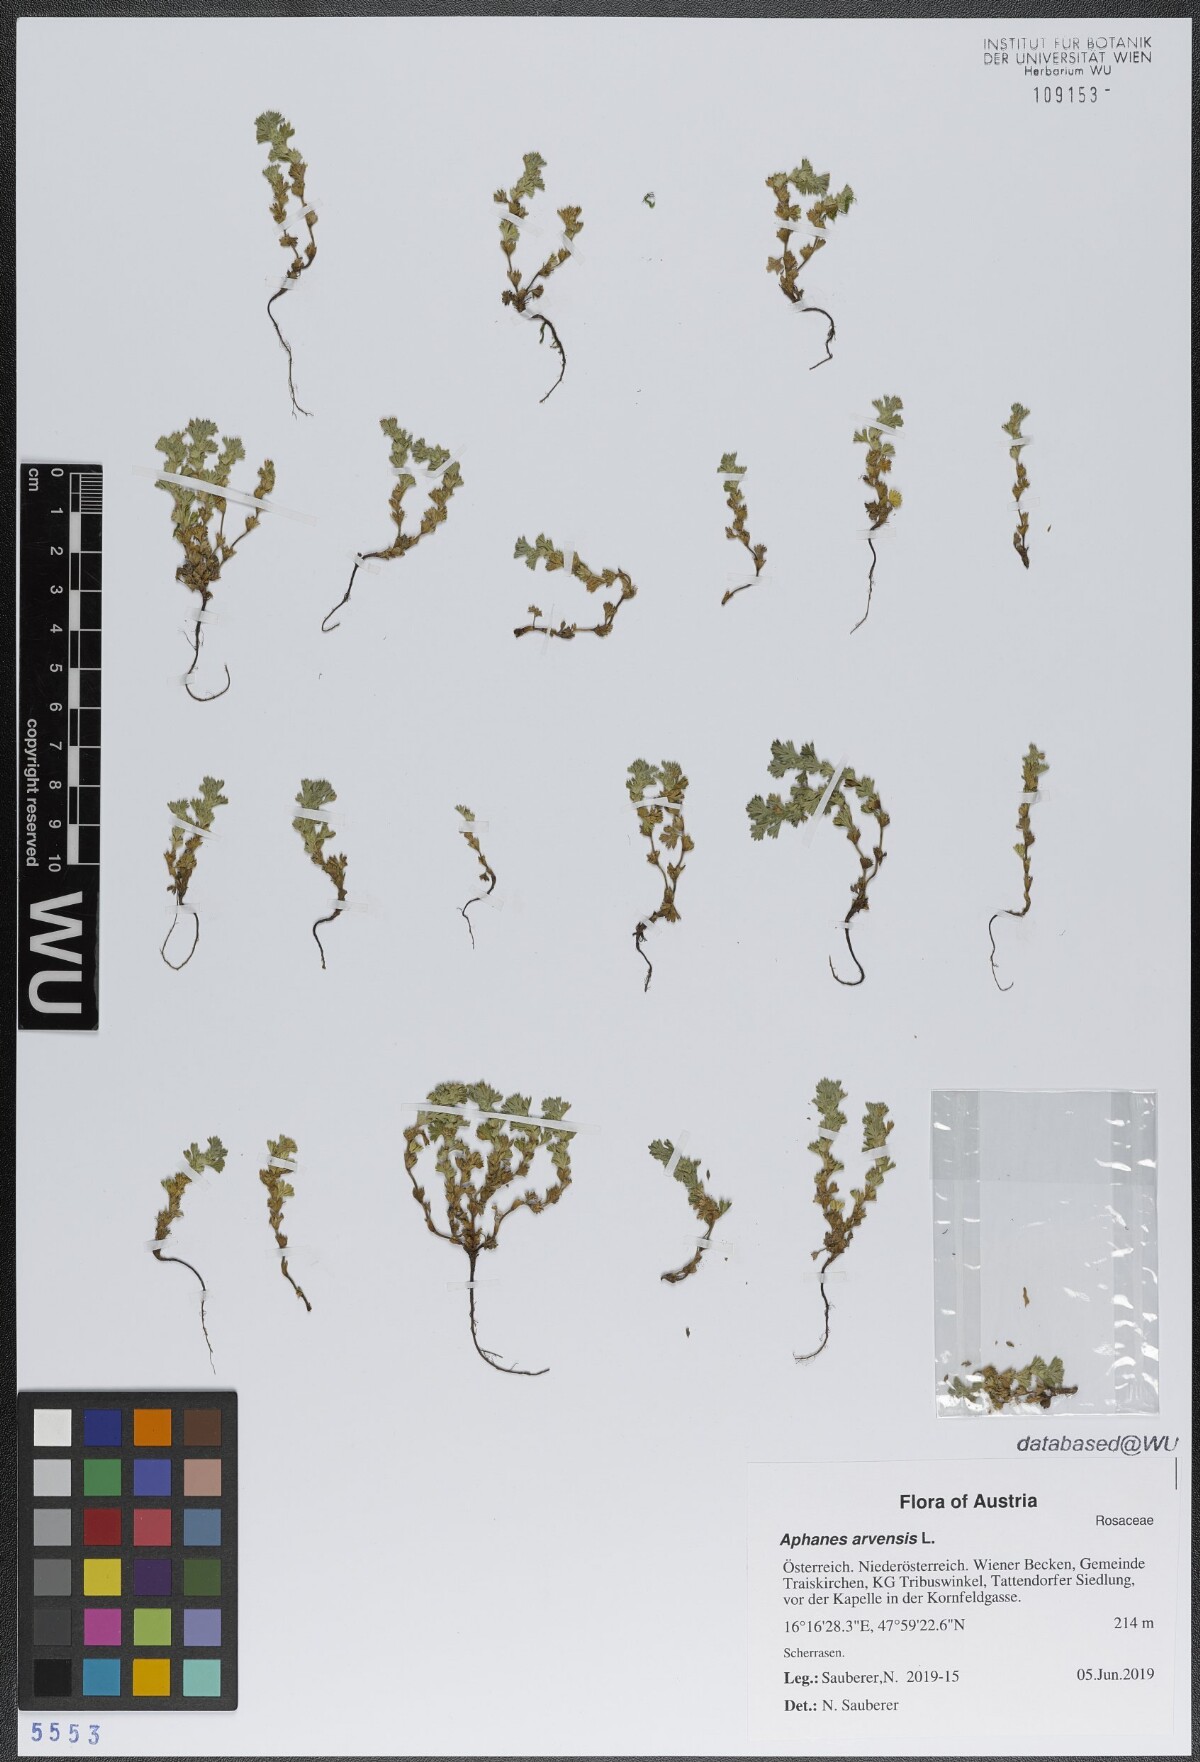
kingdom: Plantae
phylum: Tracheophyta
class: Magnoliopsida
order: Rosales
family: Rosaceae
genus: Aphanes
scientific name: Aphanes arvensis
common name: Parsley-piert
